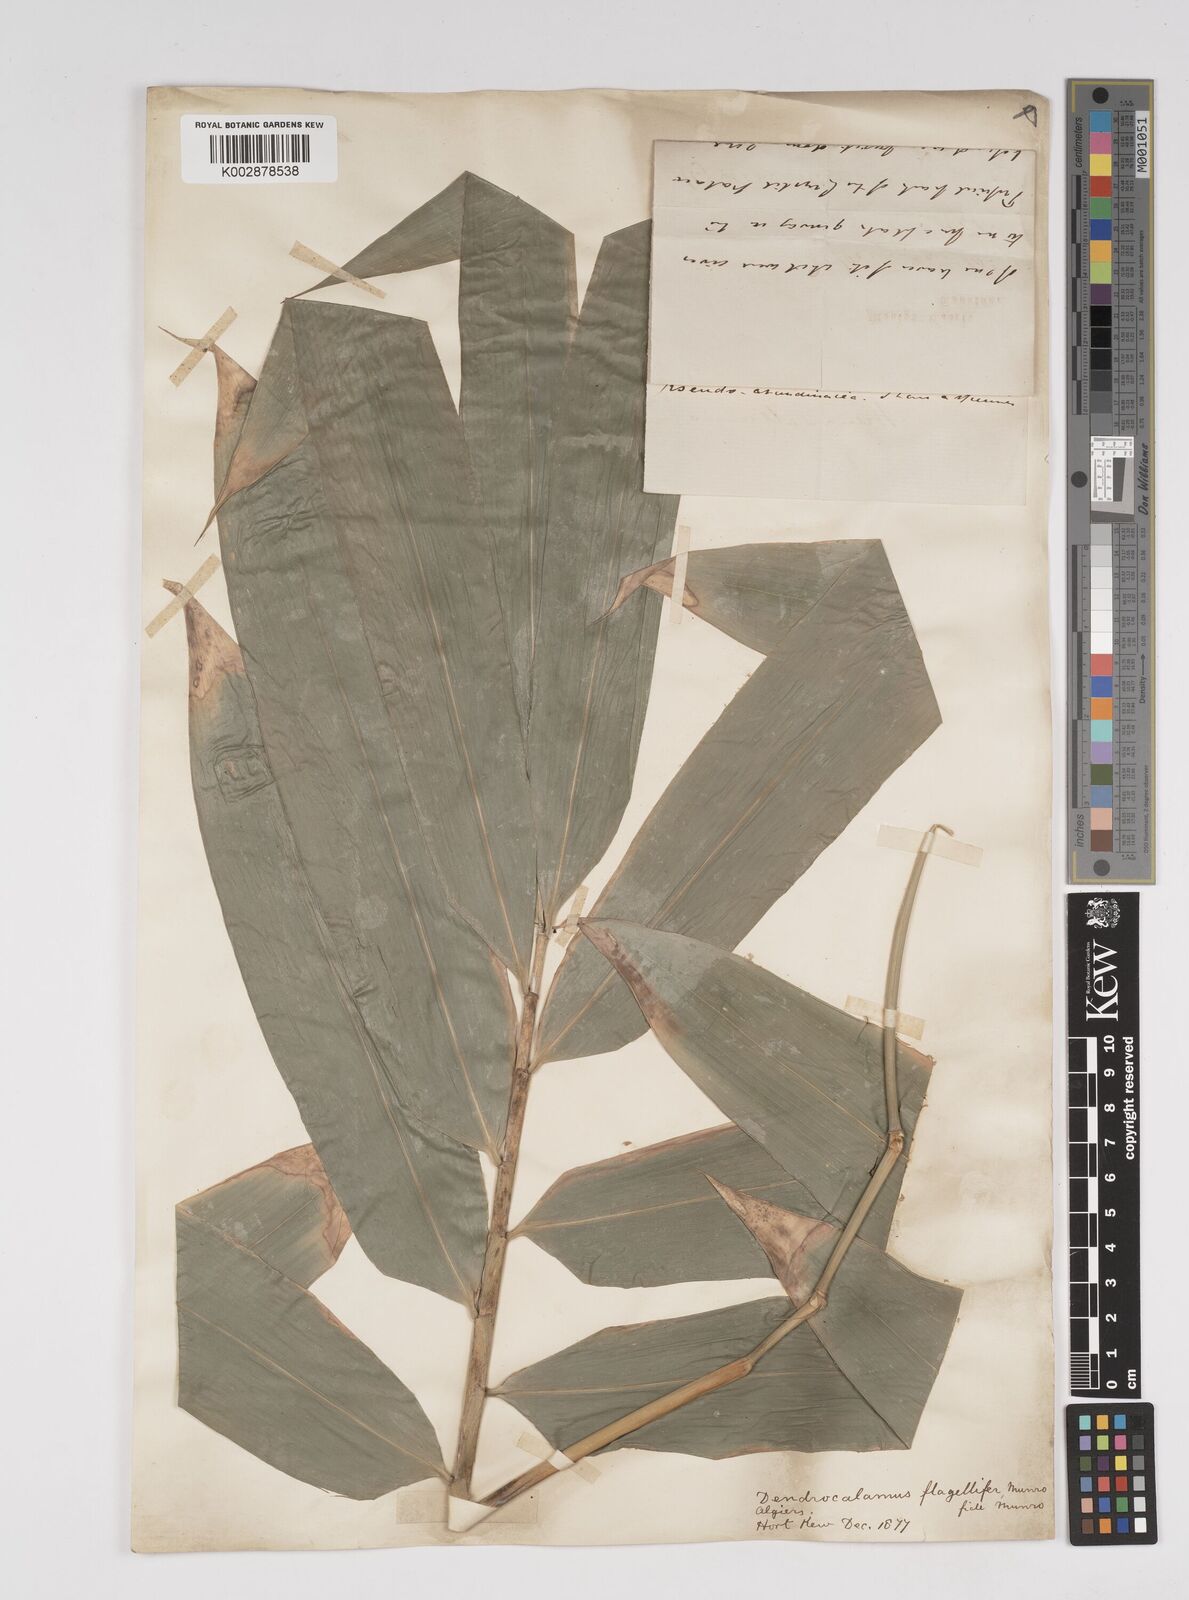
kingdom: Plantae
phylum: Tracheophyta
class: Liliopsida
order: Poales
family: Poaceae
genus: Dendrocalamus
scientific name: Dendrocalamus asper
